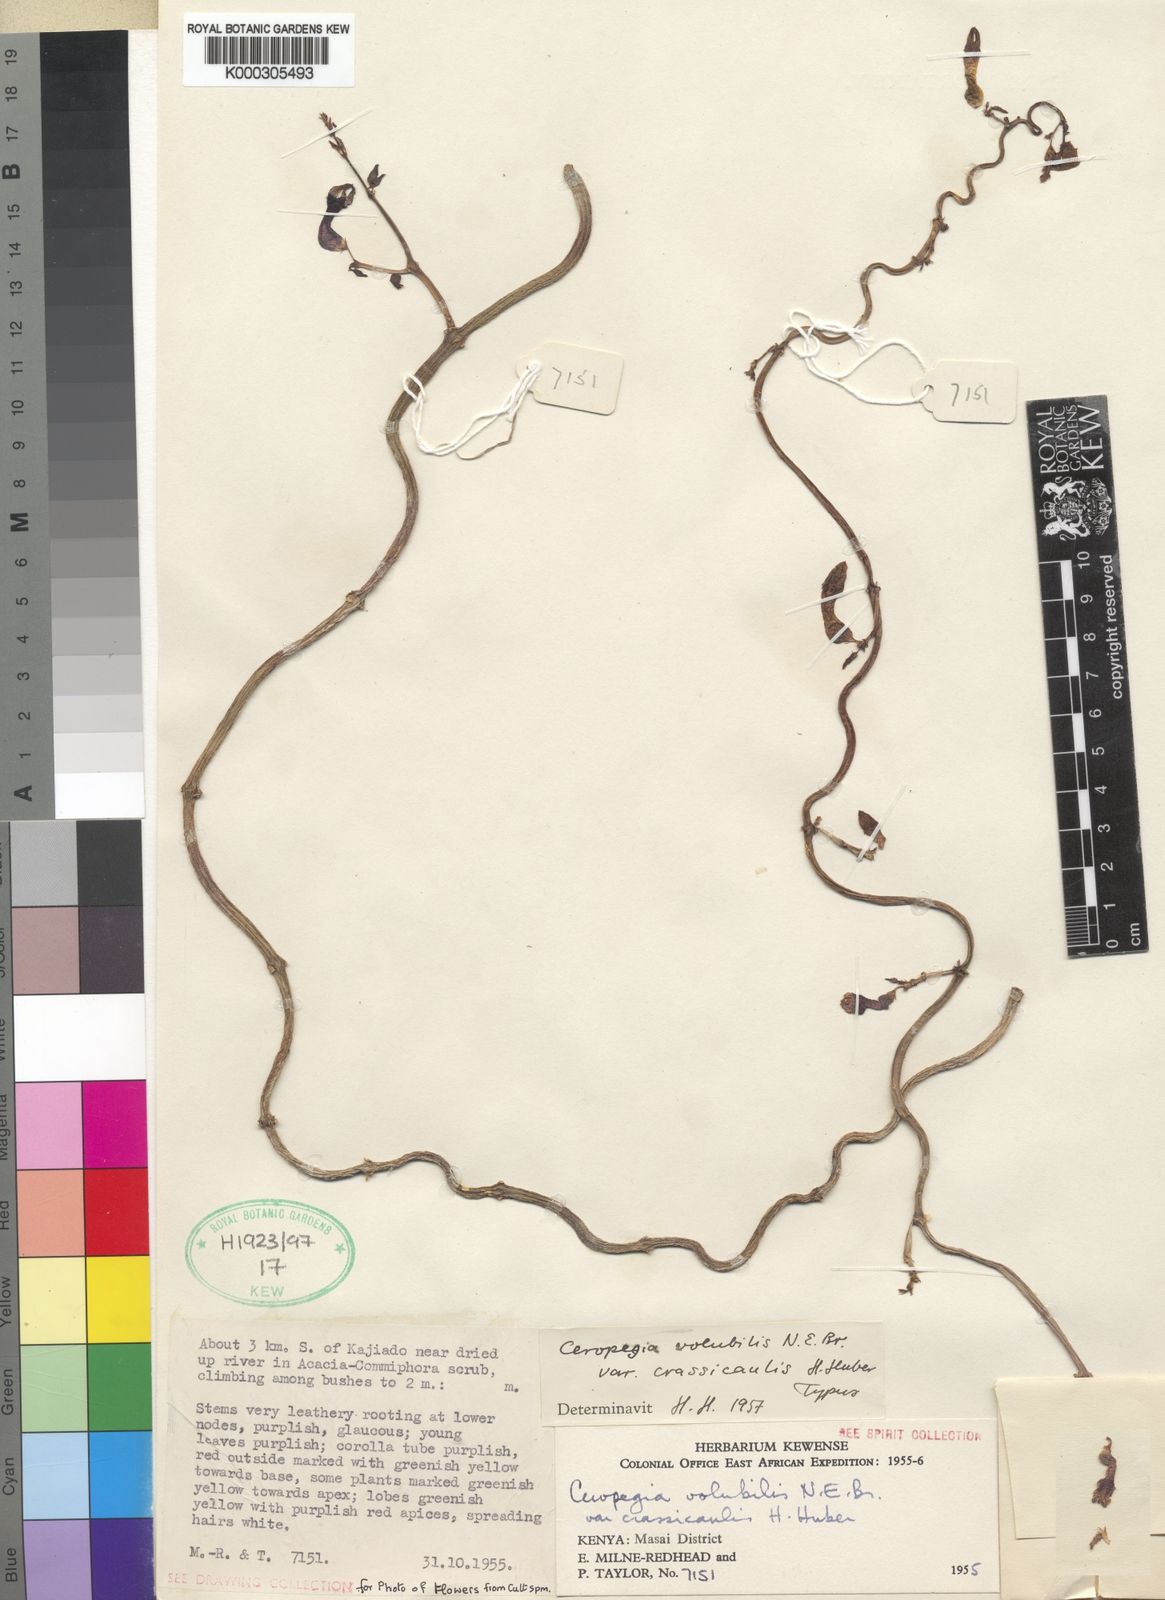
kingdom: Plantae
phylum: Tracheophyta
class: Magnoliopsida
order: Gentianales
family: Apocynaceae
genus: Ceropegia
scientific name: Ceropegia aristolochioides
